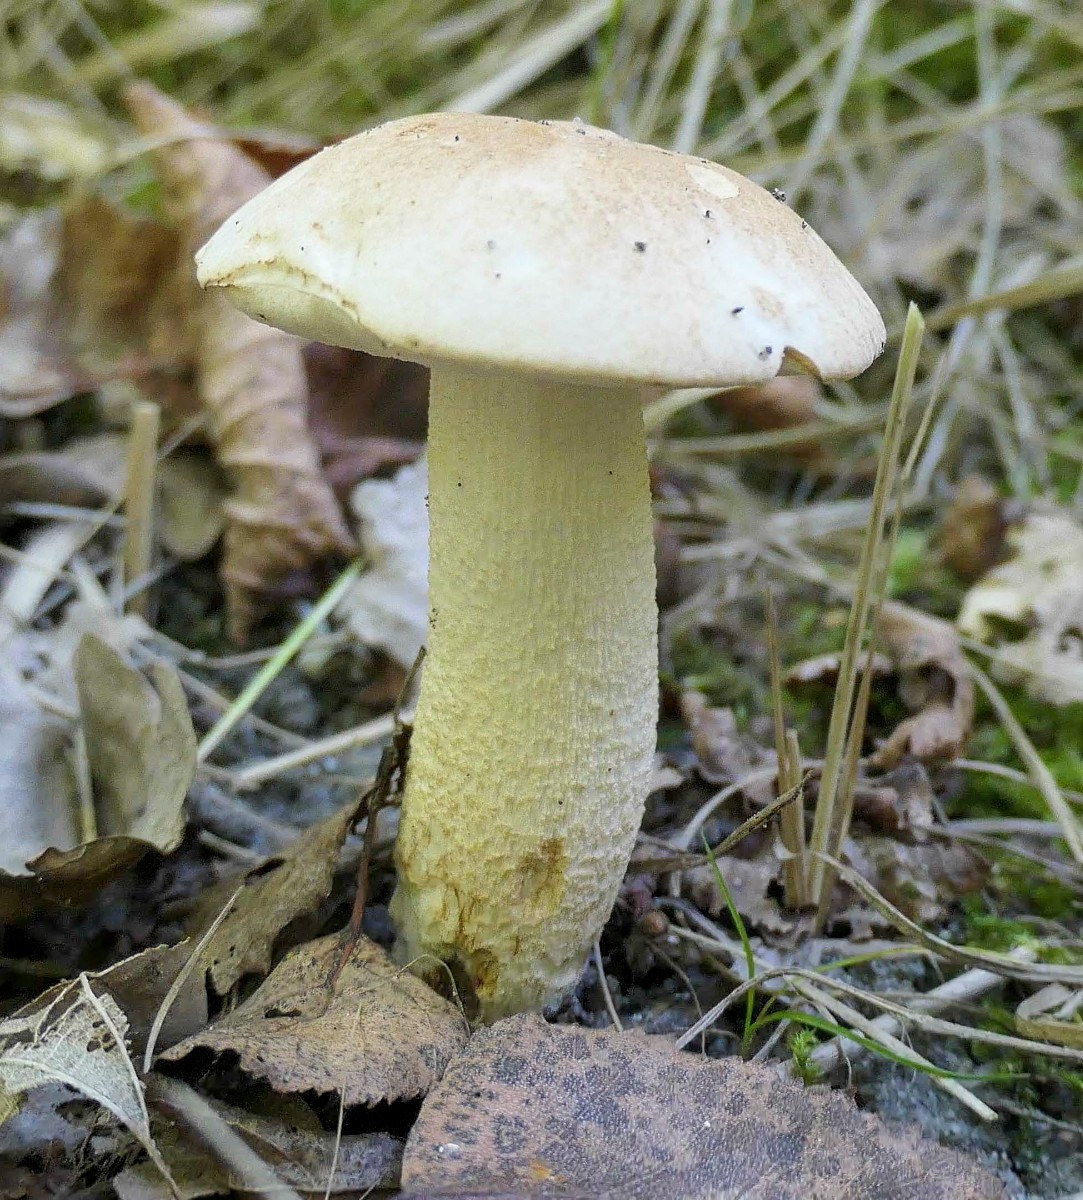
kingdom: Fungi
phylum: Basidiomycota
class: Agaricomycetes
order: Boletales
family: Boletaceae
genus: Leccinum
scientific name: Leccinum
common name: skælrørhat
